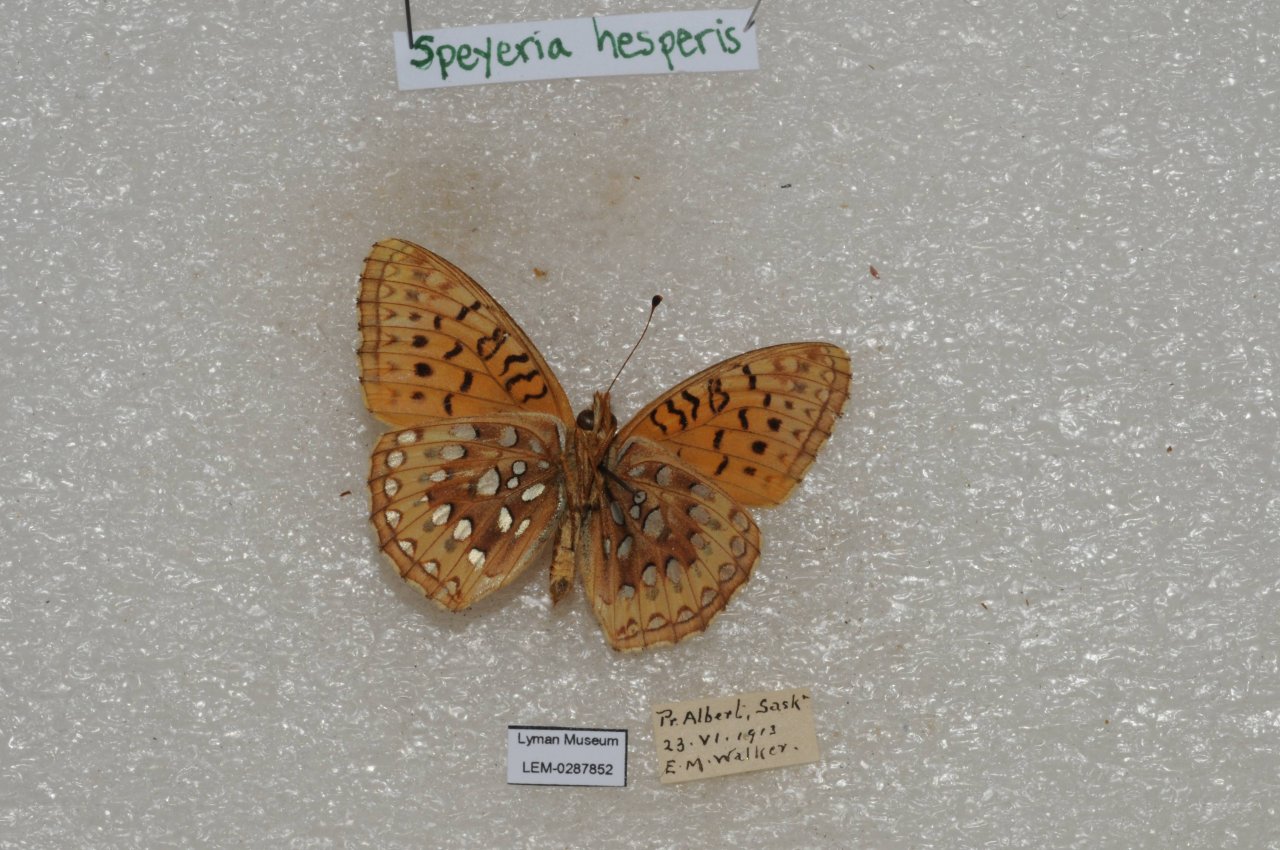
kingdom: Animalia
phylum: Arthropoda
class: Insecta
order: Lepidoptera
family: Nymphalidae
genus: Speyeria
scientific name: Speyeria atlantis
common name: Northwestern Fritillary
